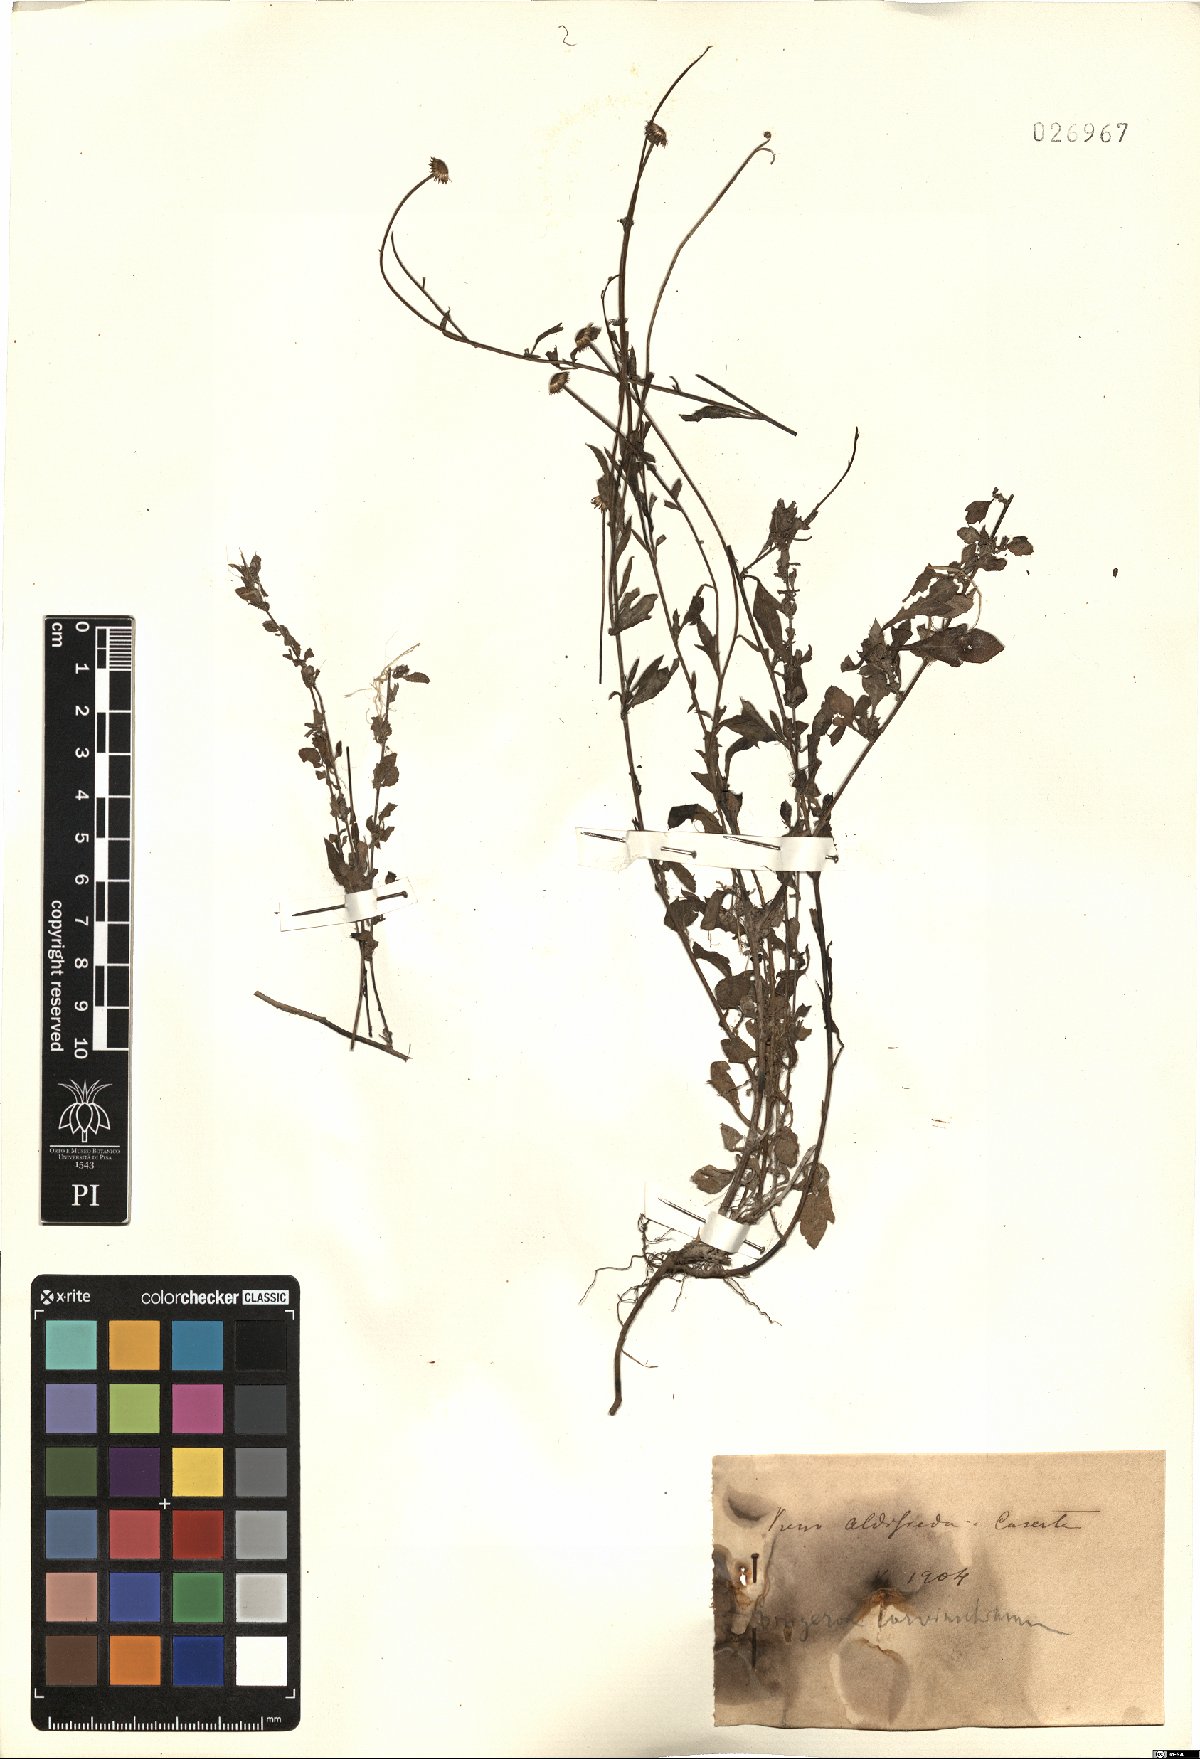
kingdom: Plantae
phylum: Tracheophyta
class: Magnoliopsida
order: Asterales
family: Asteraceae
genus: Erigeron
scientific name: Erigeron karvinskianus
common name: Mexican fleabane
